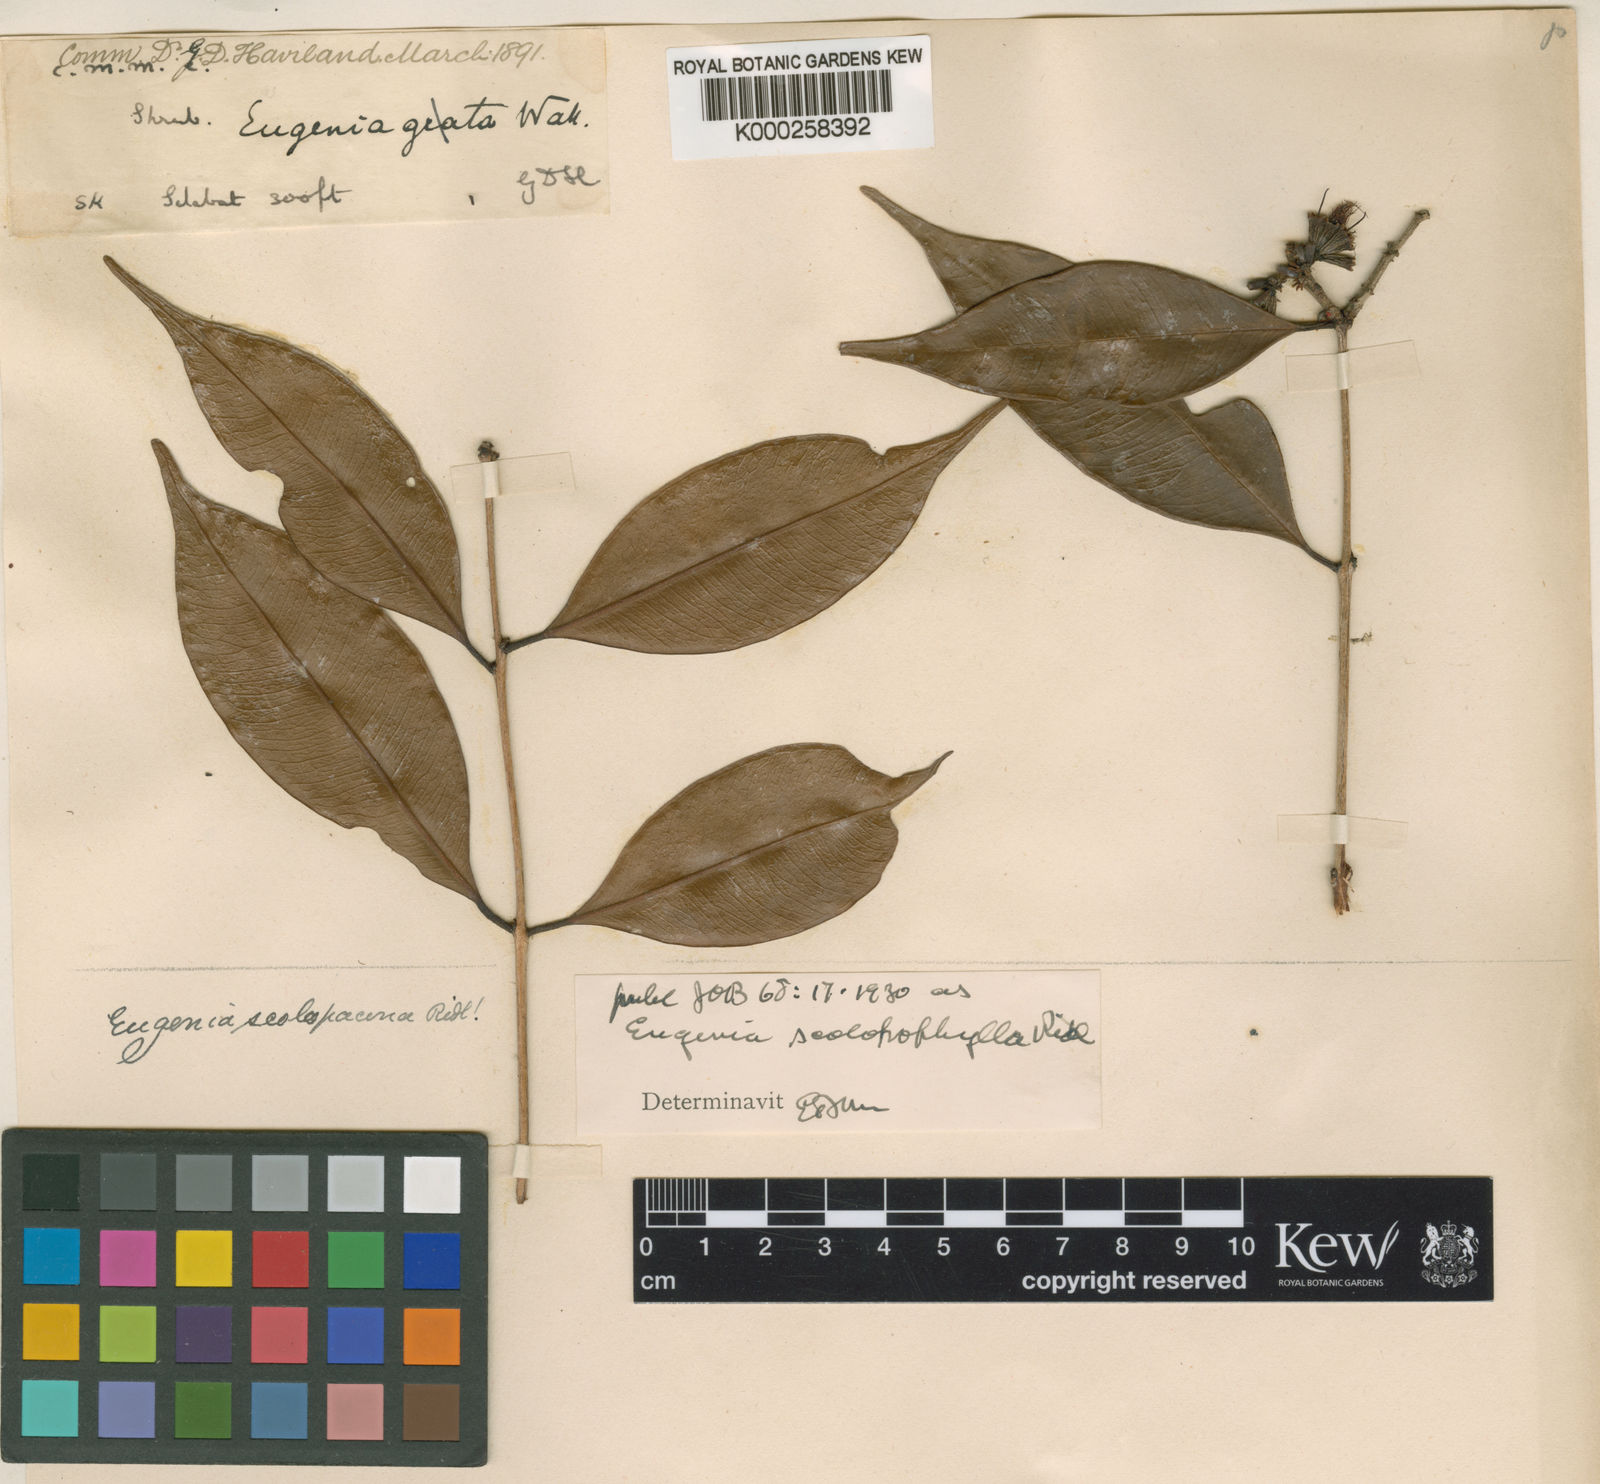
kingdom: Plantae
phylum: Tracheophyta
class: Magnoliopsida
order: Myrtales
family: Myrtaceae
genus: Syzygium
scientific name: Syzygium antisepticum
